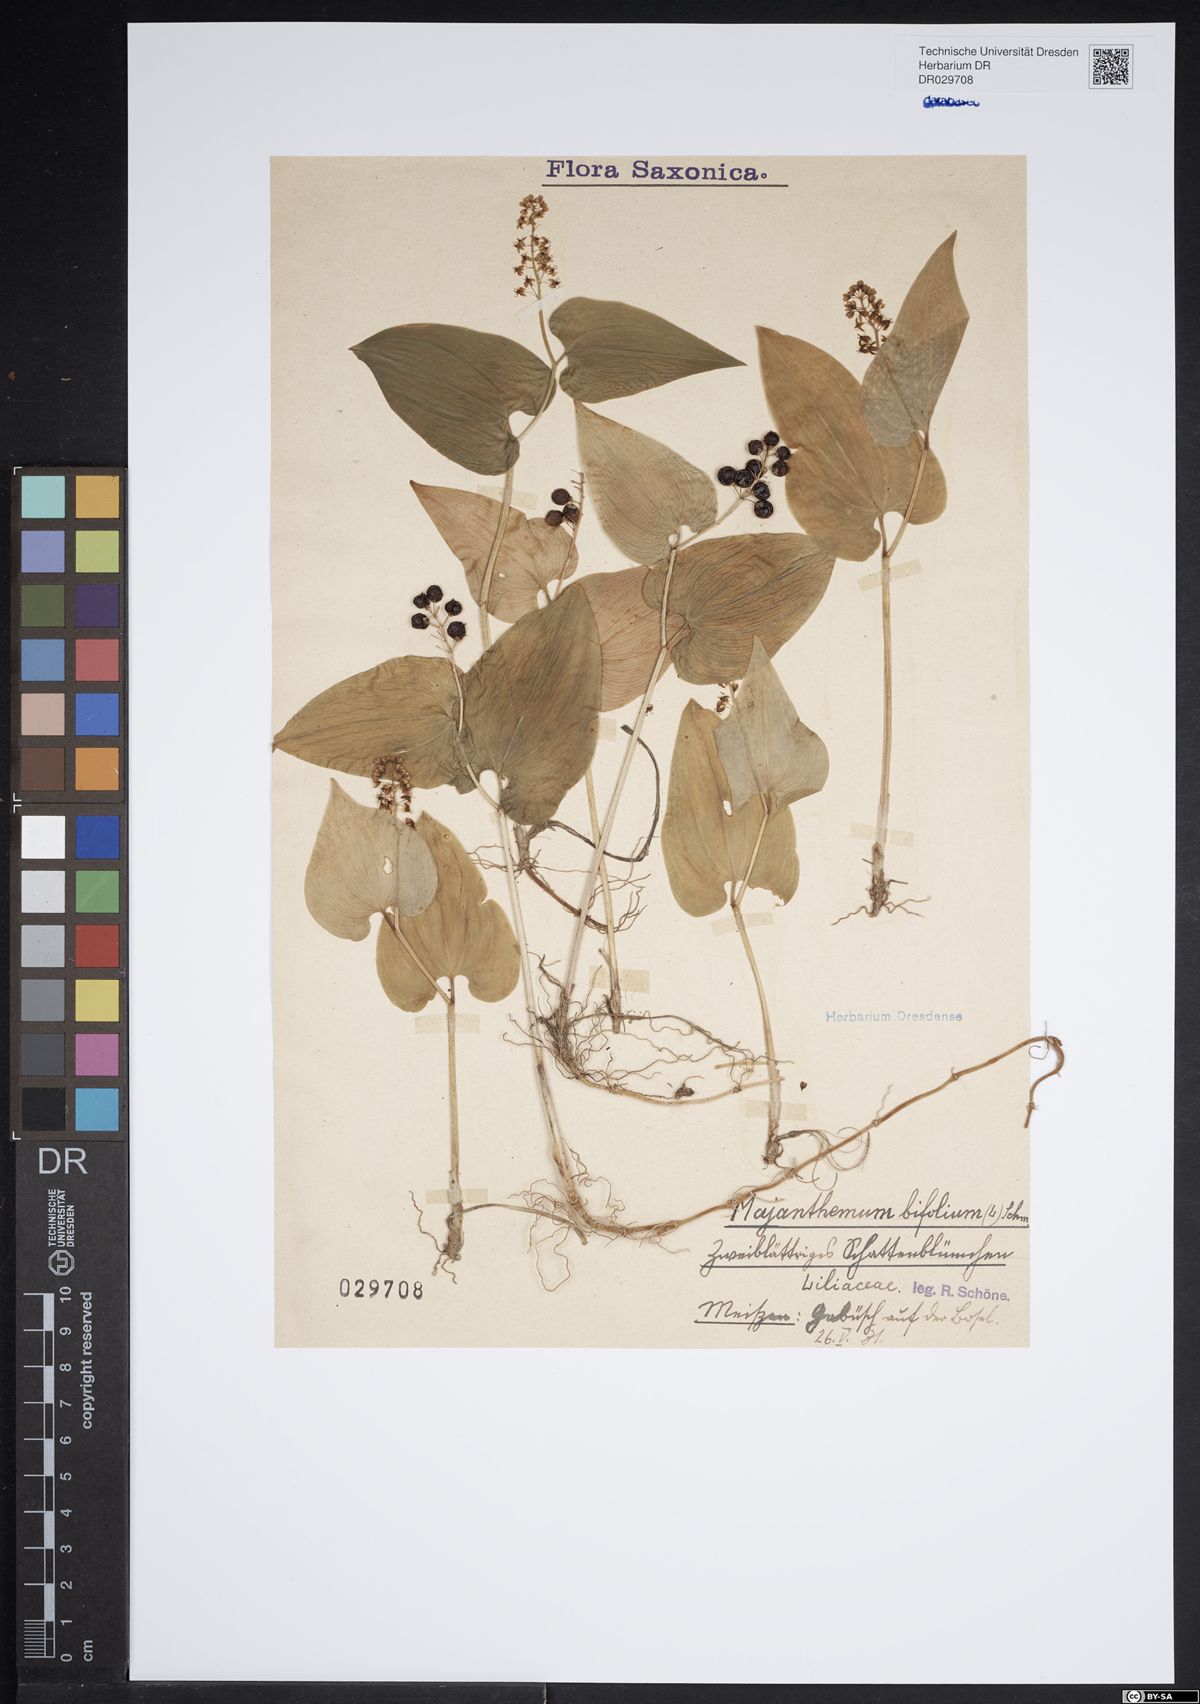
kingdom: Plantae
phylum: Tracheophyta
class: Liliopsida
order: Asparagales
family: Asparagaceae
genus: Maianthemum
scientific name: Maianthemum bifolium
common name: May lily
